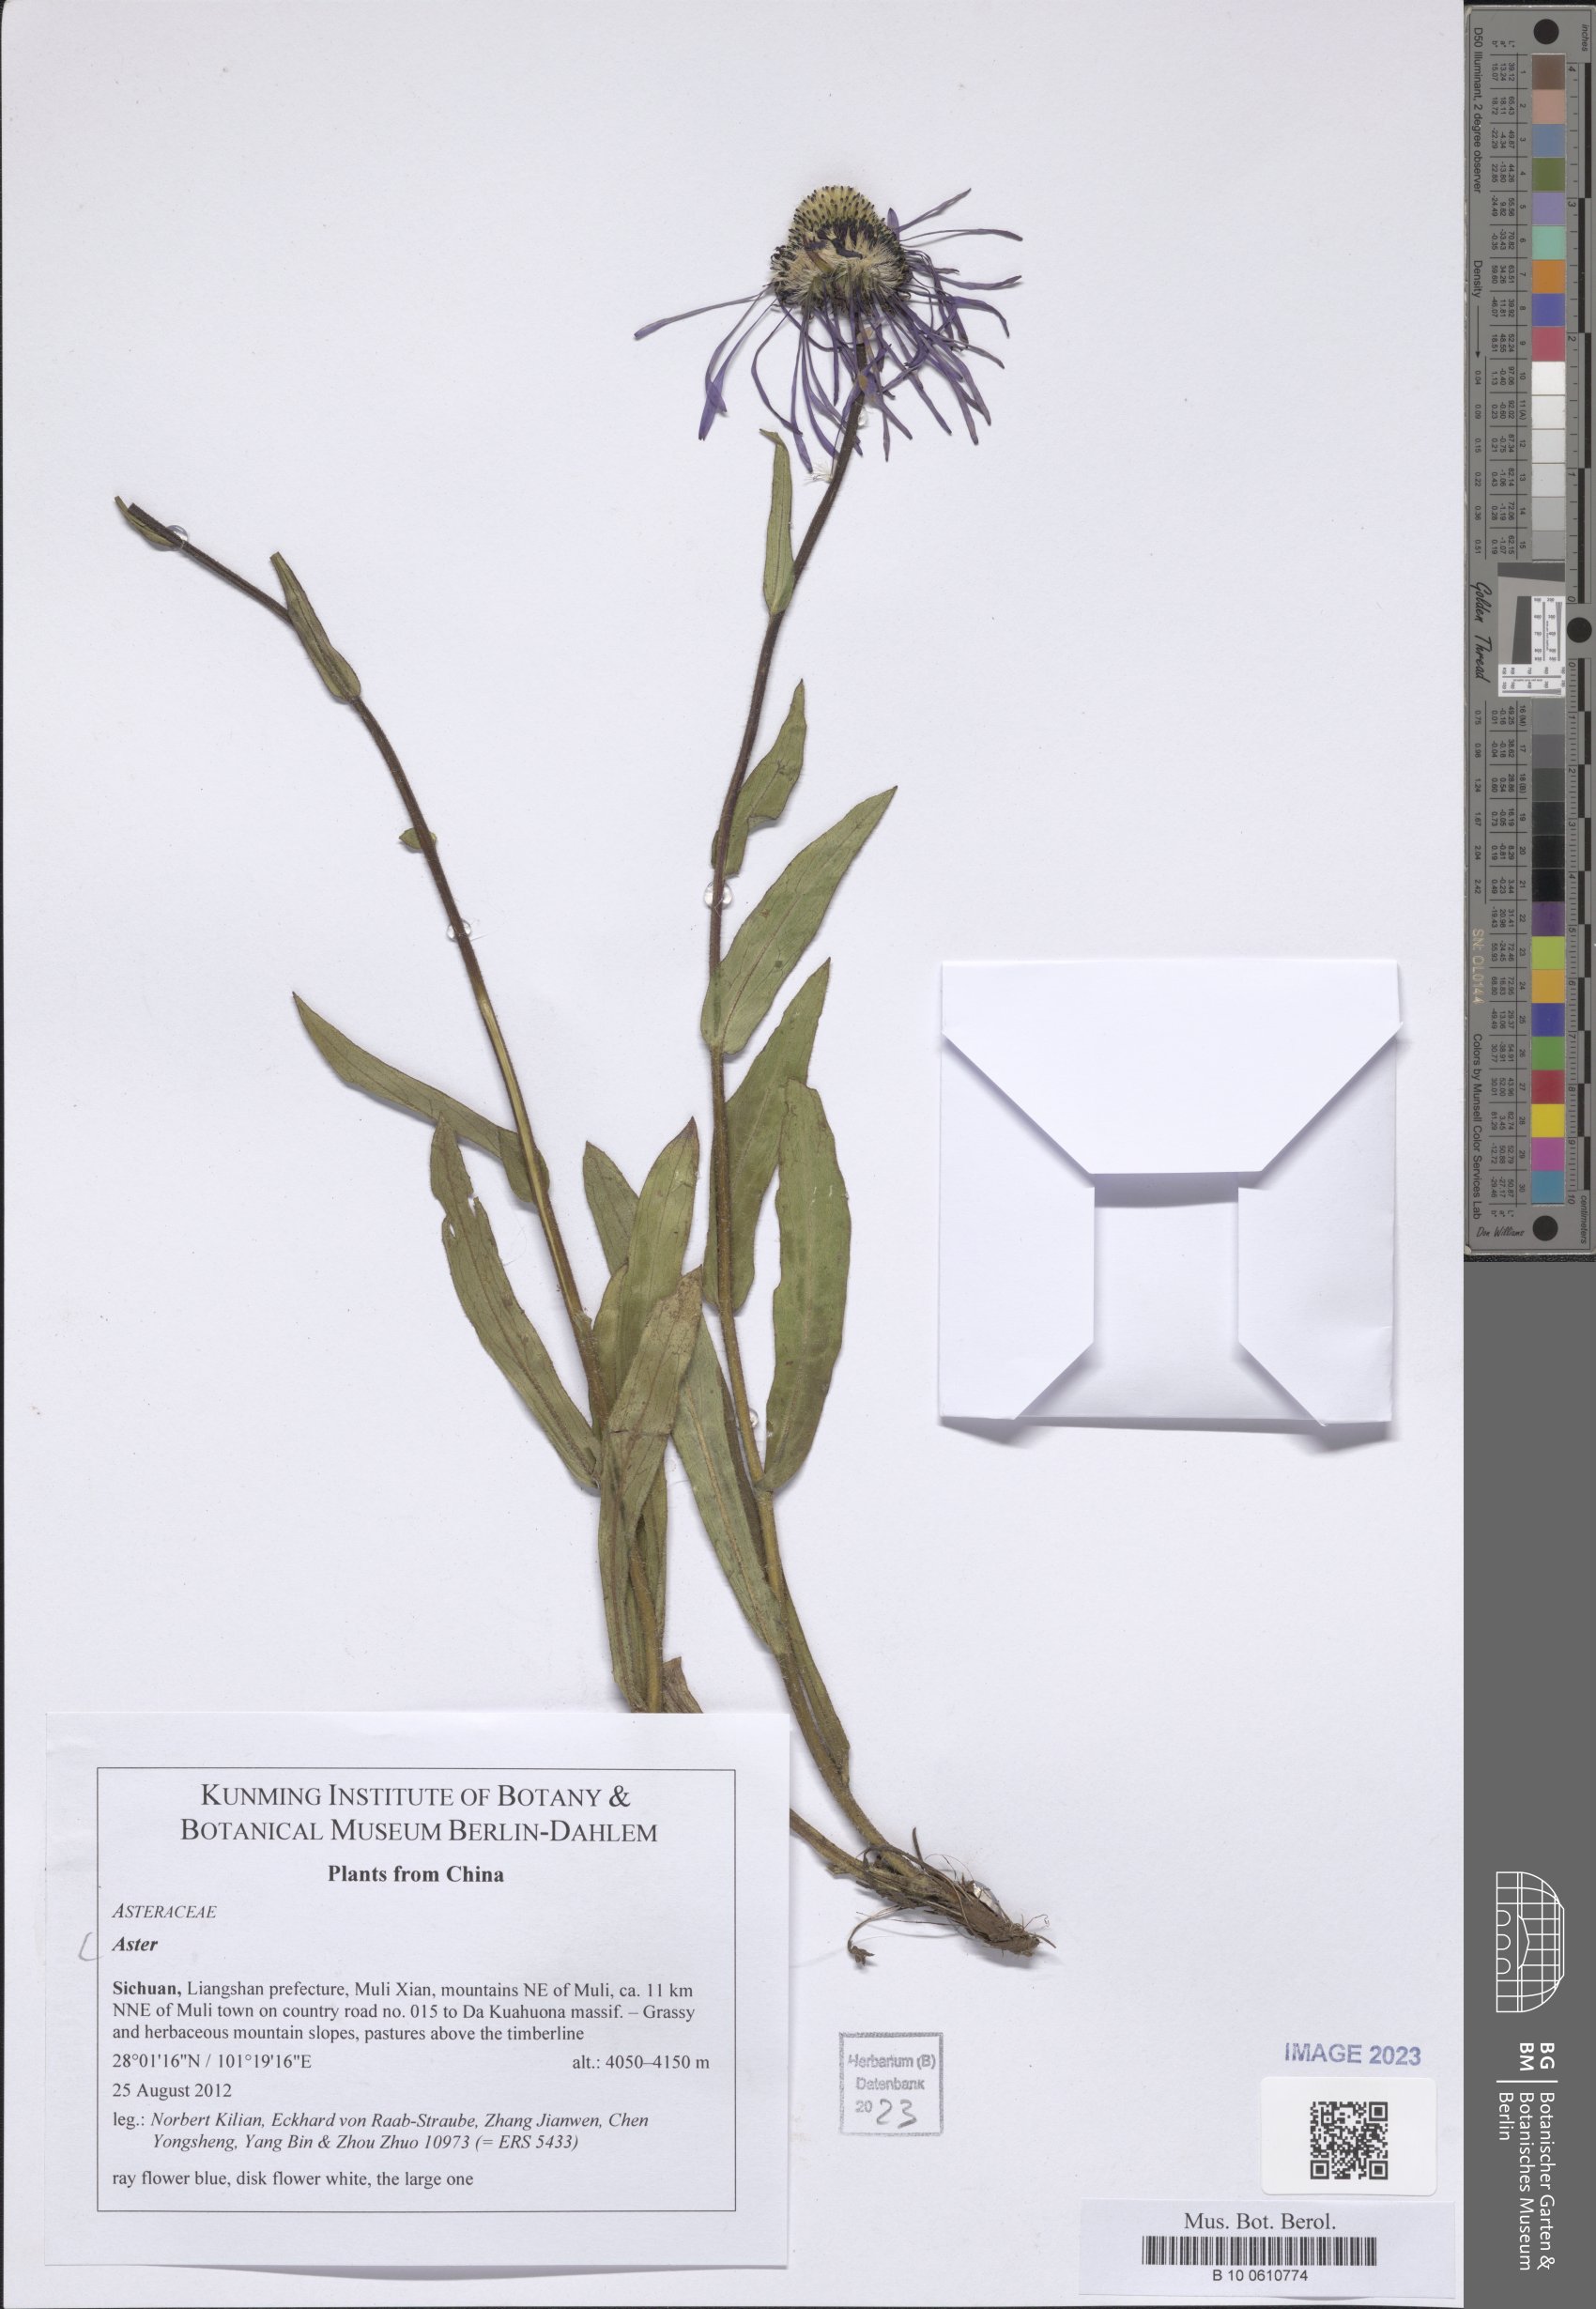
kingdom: Plantae
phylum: Tracheophyta
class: Magnoliopsida
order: Asterales
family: Asteraceae
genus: Aster
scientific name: Aster
